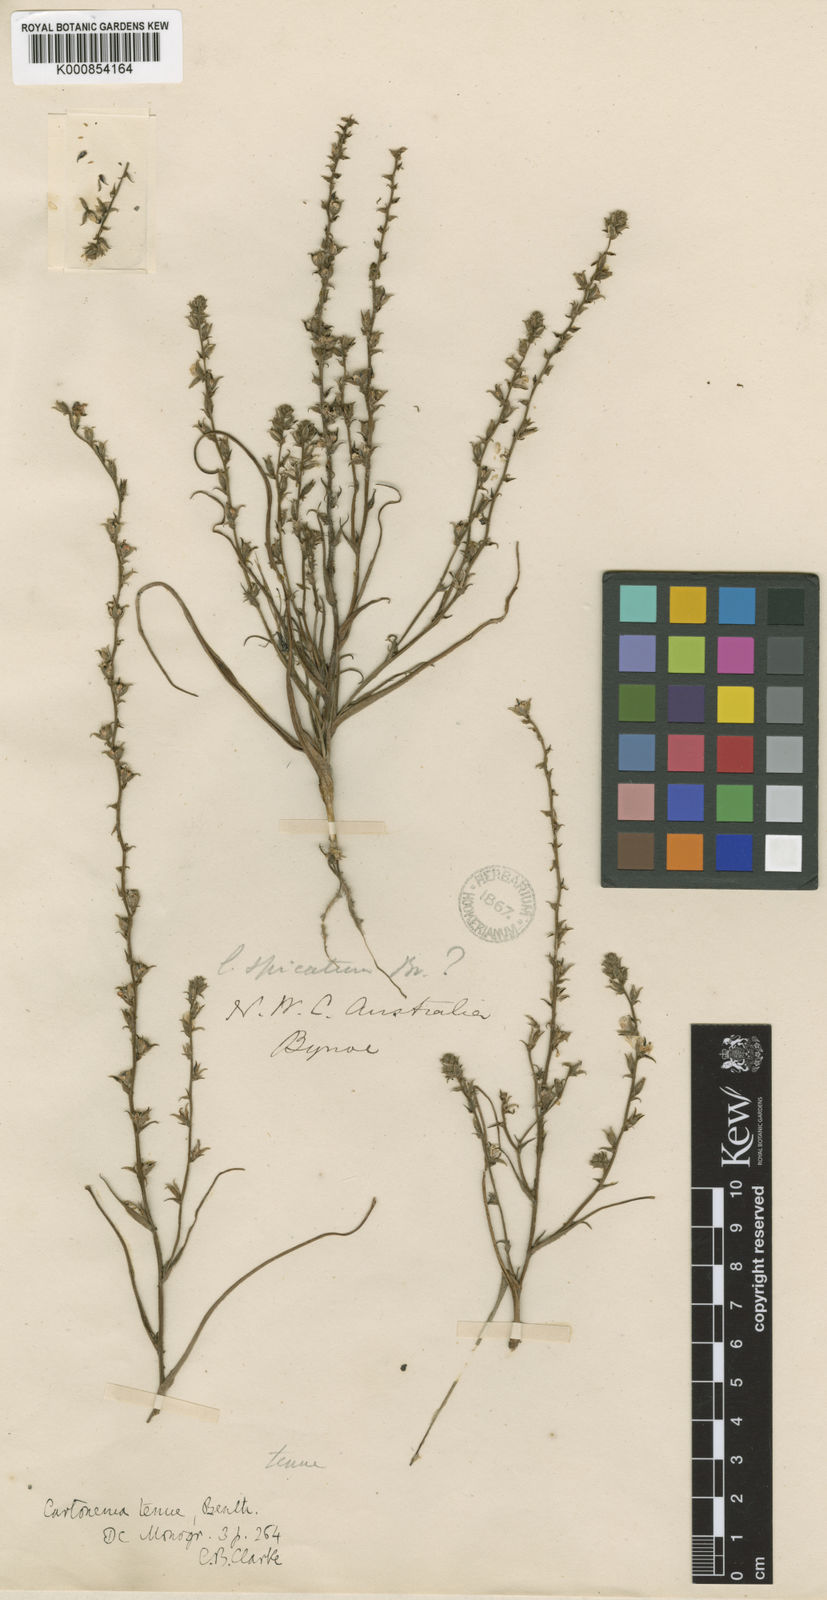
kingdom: Plantae
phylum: Tracheophyta
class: Liliopsida
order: Commelinales
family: Commelinaceae
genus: Cartonema
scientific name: Cartonema tenue
